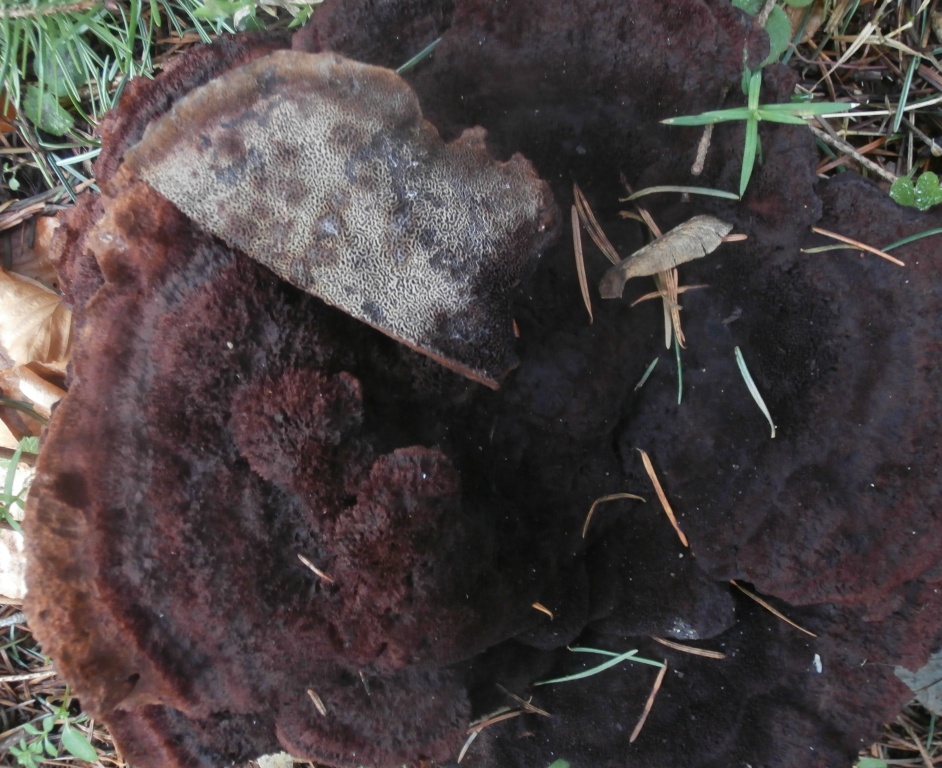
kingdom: Fungi
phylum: Basidiomycota
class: Agaricomycetes
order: Polyporales
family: Laetiporaceae
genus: Phaeolus
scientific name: Phaeolus schweinitzii
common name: brunporesvamp
